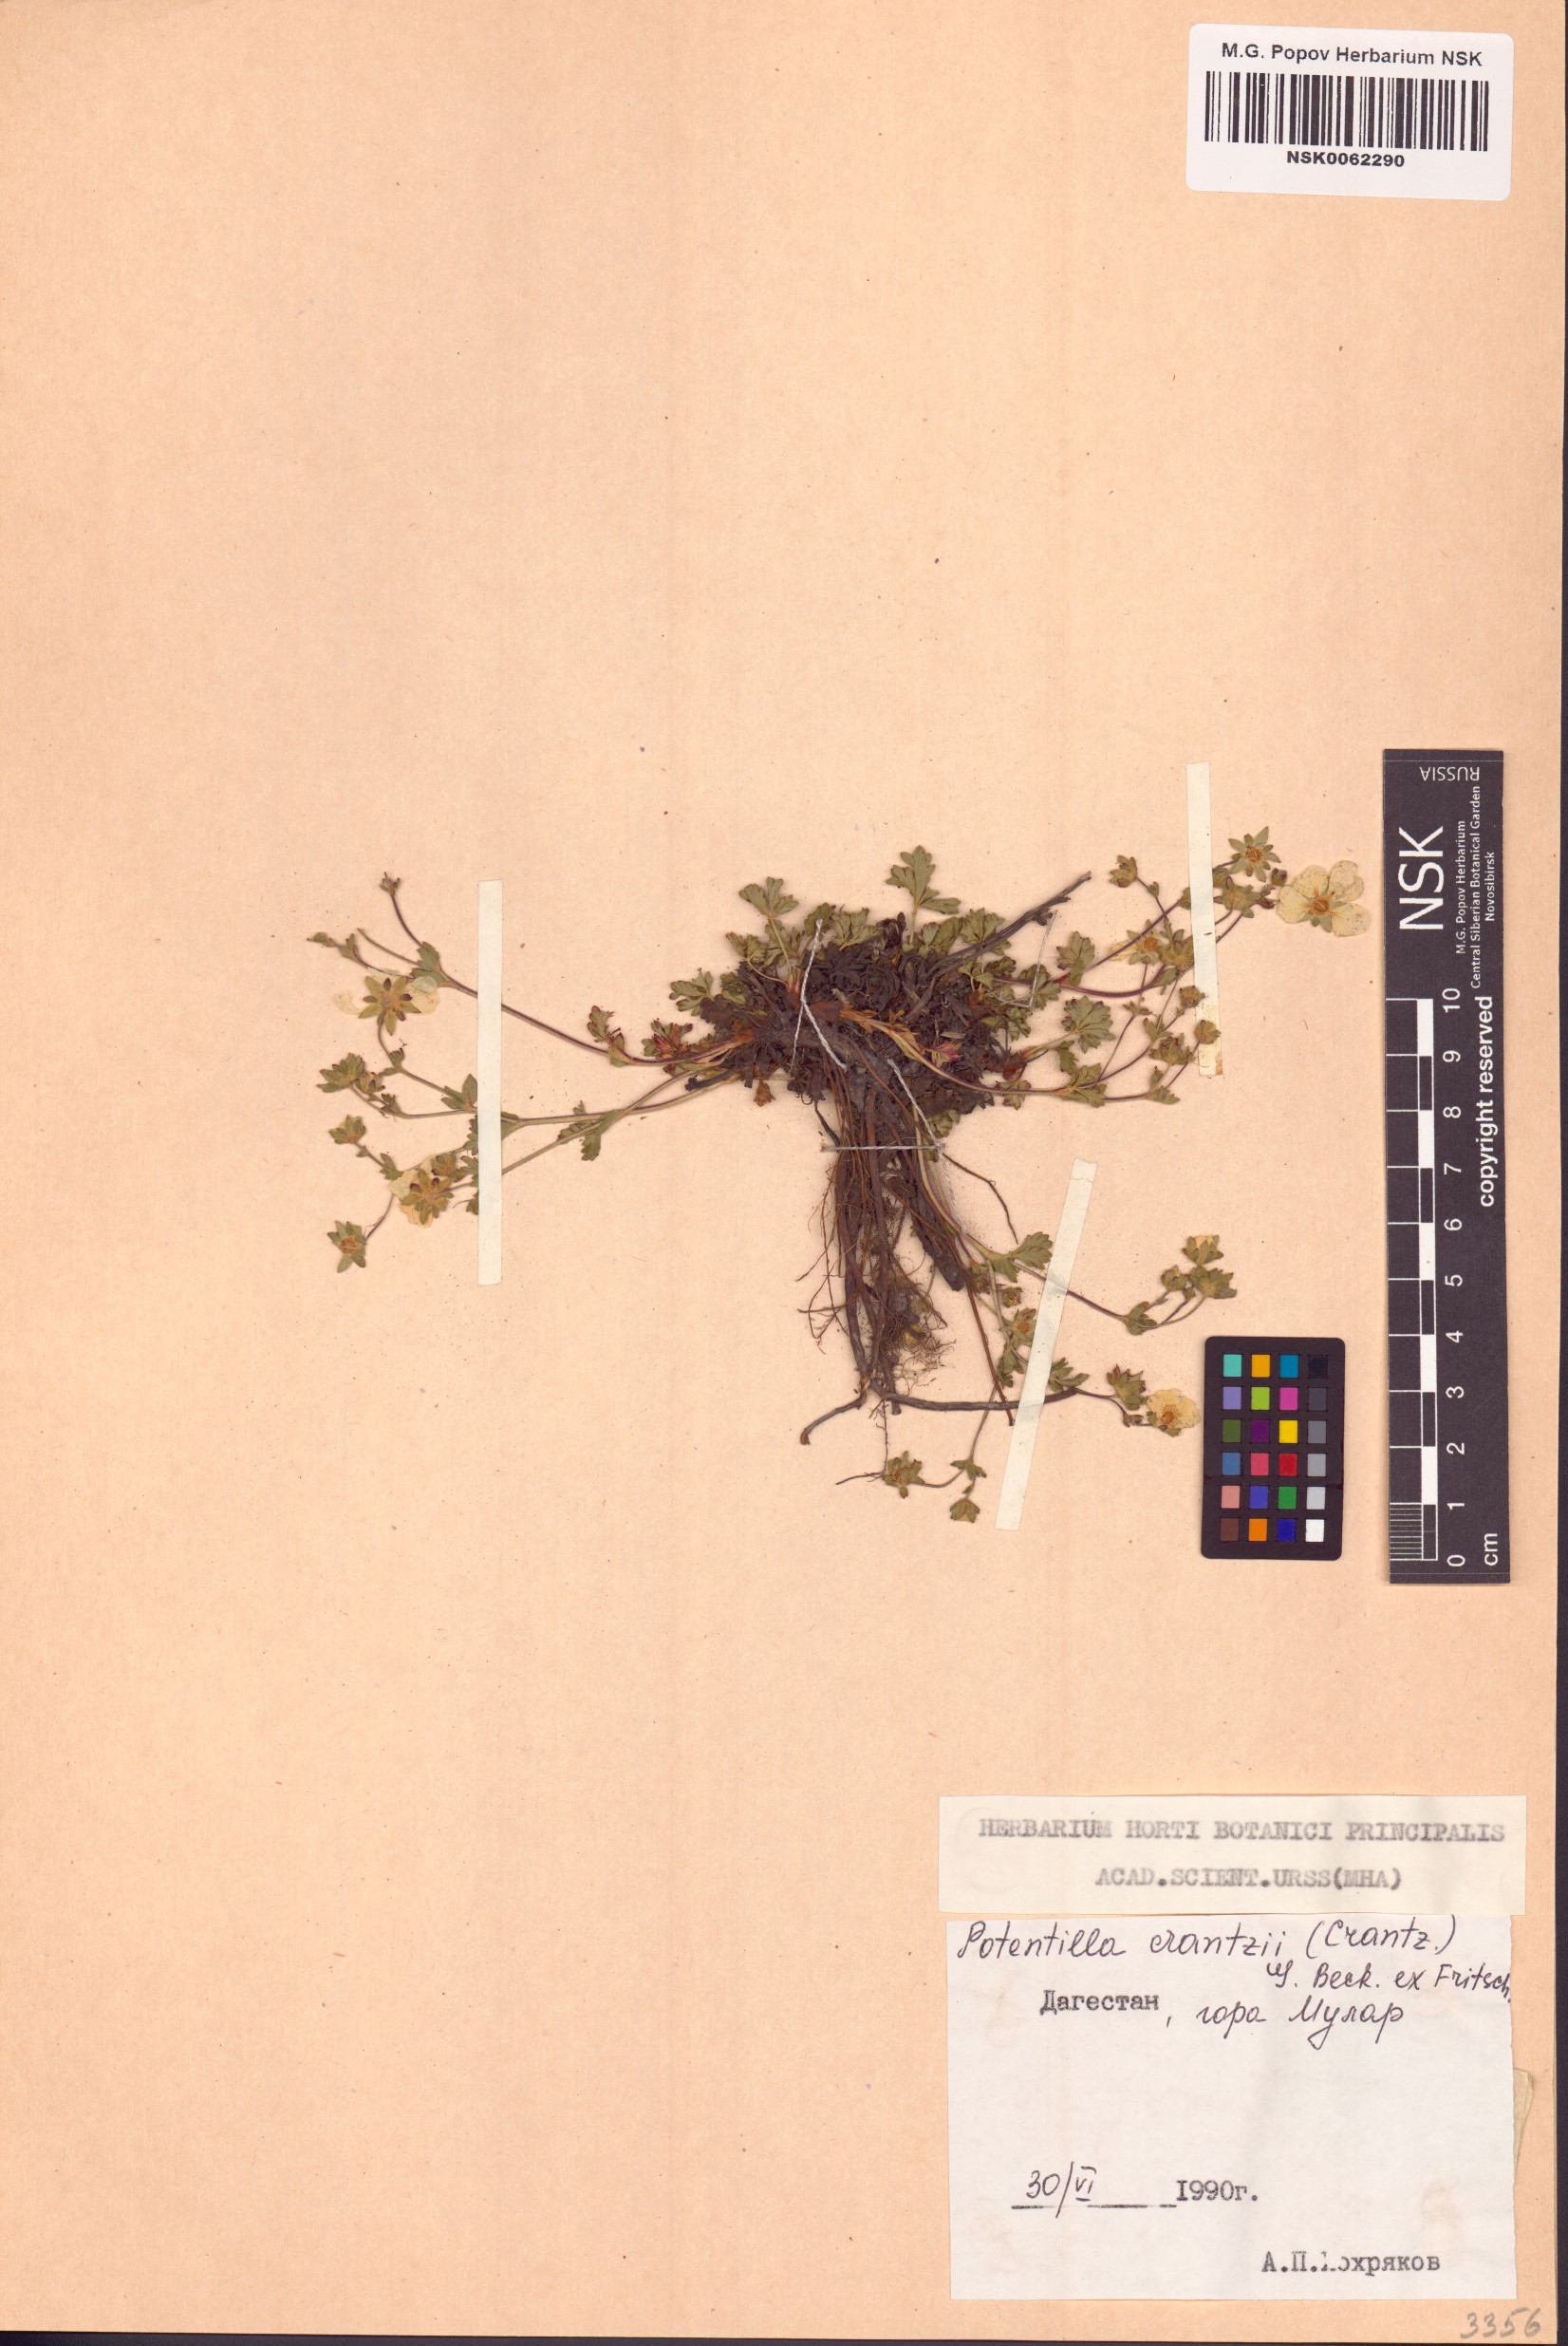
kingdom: Plantae
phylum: Tracheophyta
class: Magnoliopsida
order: Rosales
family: Rosaceae
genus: Potentilla
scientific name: Potentilla crantzii
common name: Alpine cinquefoil
